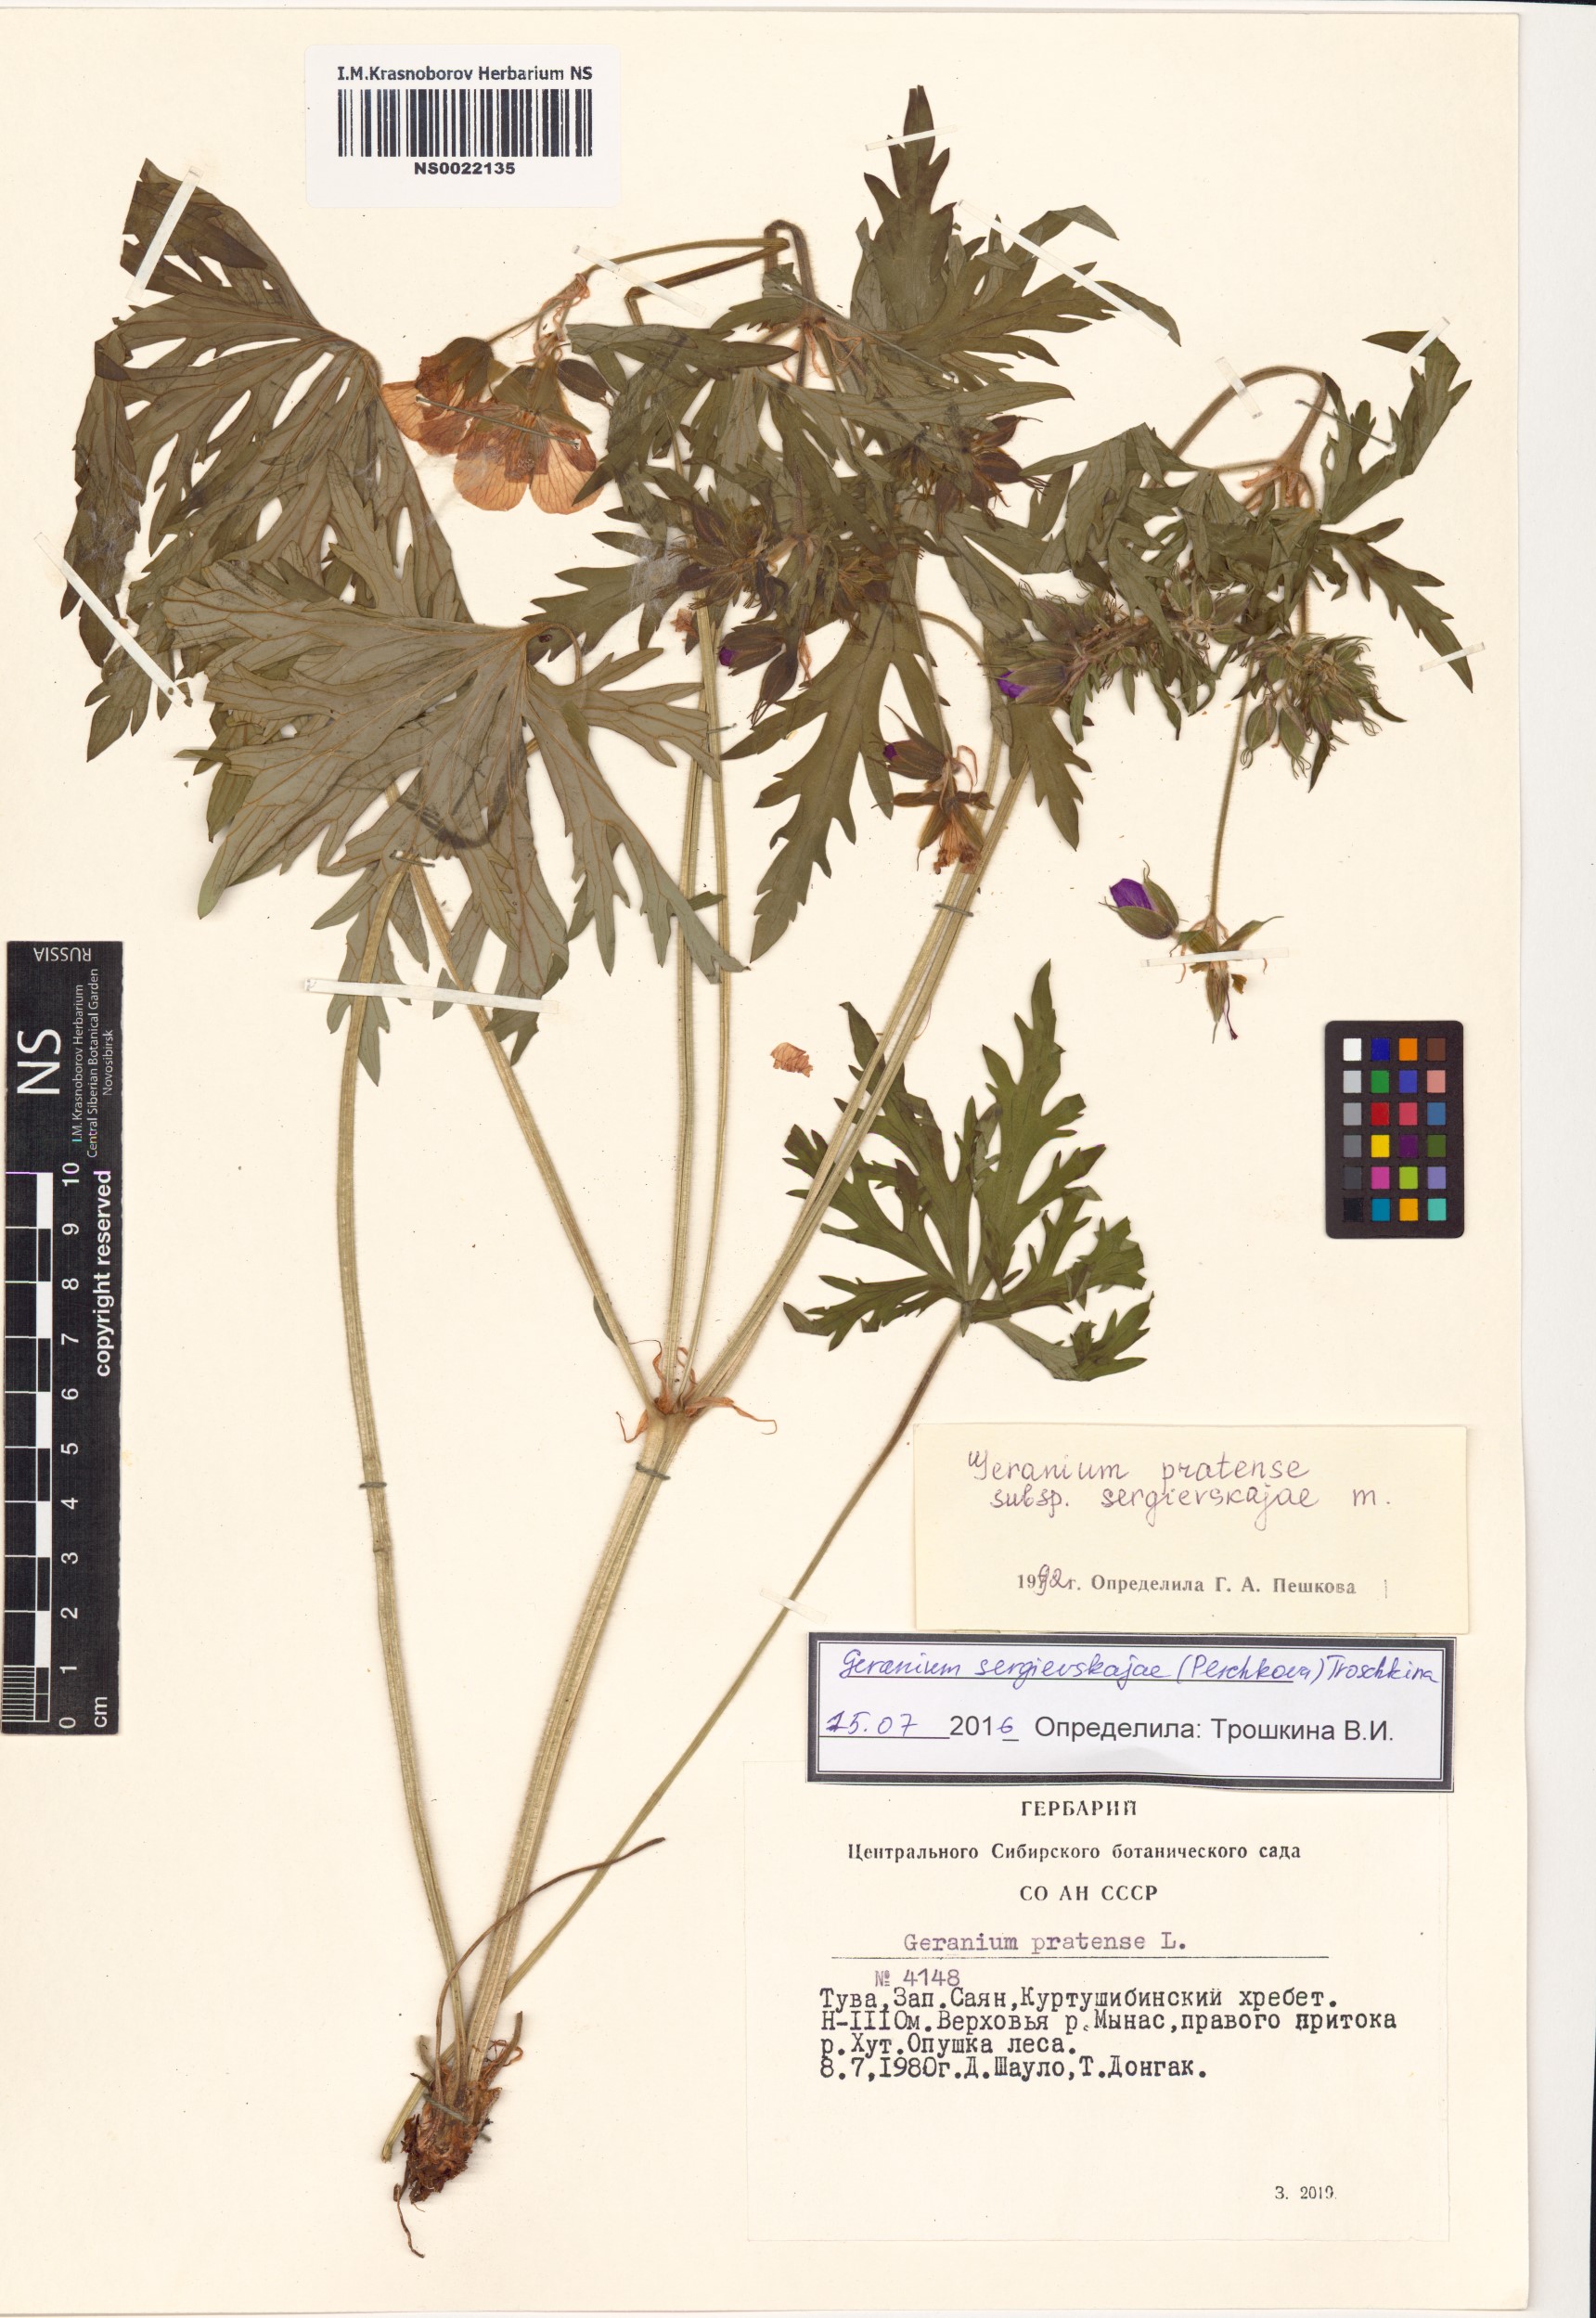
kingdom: Plantae
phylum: Tracheophyta
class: Magnoliopsida
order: Geraniales
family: Geraniaceae
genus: Geranium
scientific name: Geranium pratense
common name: Meadow crane's-bill
